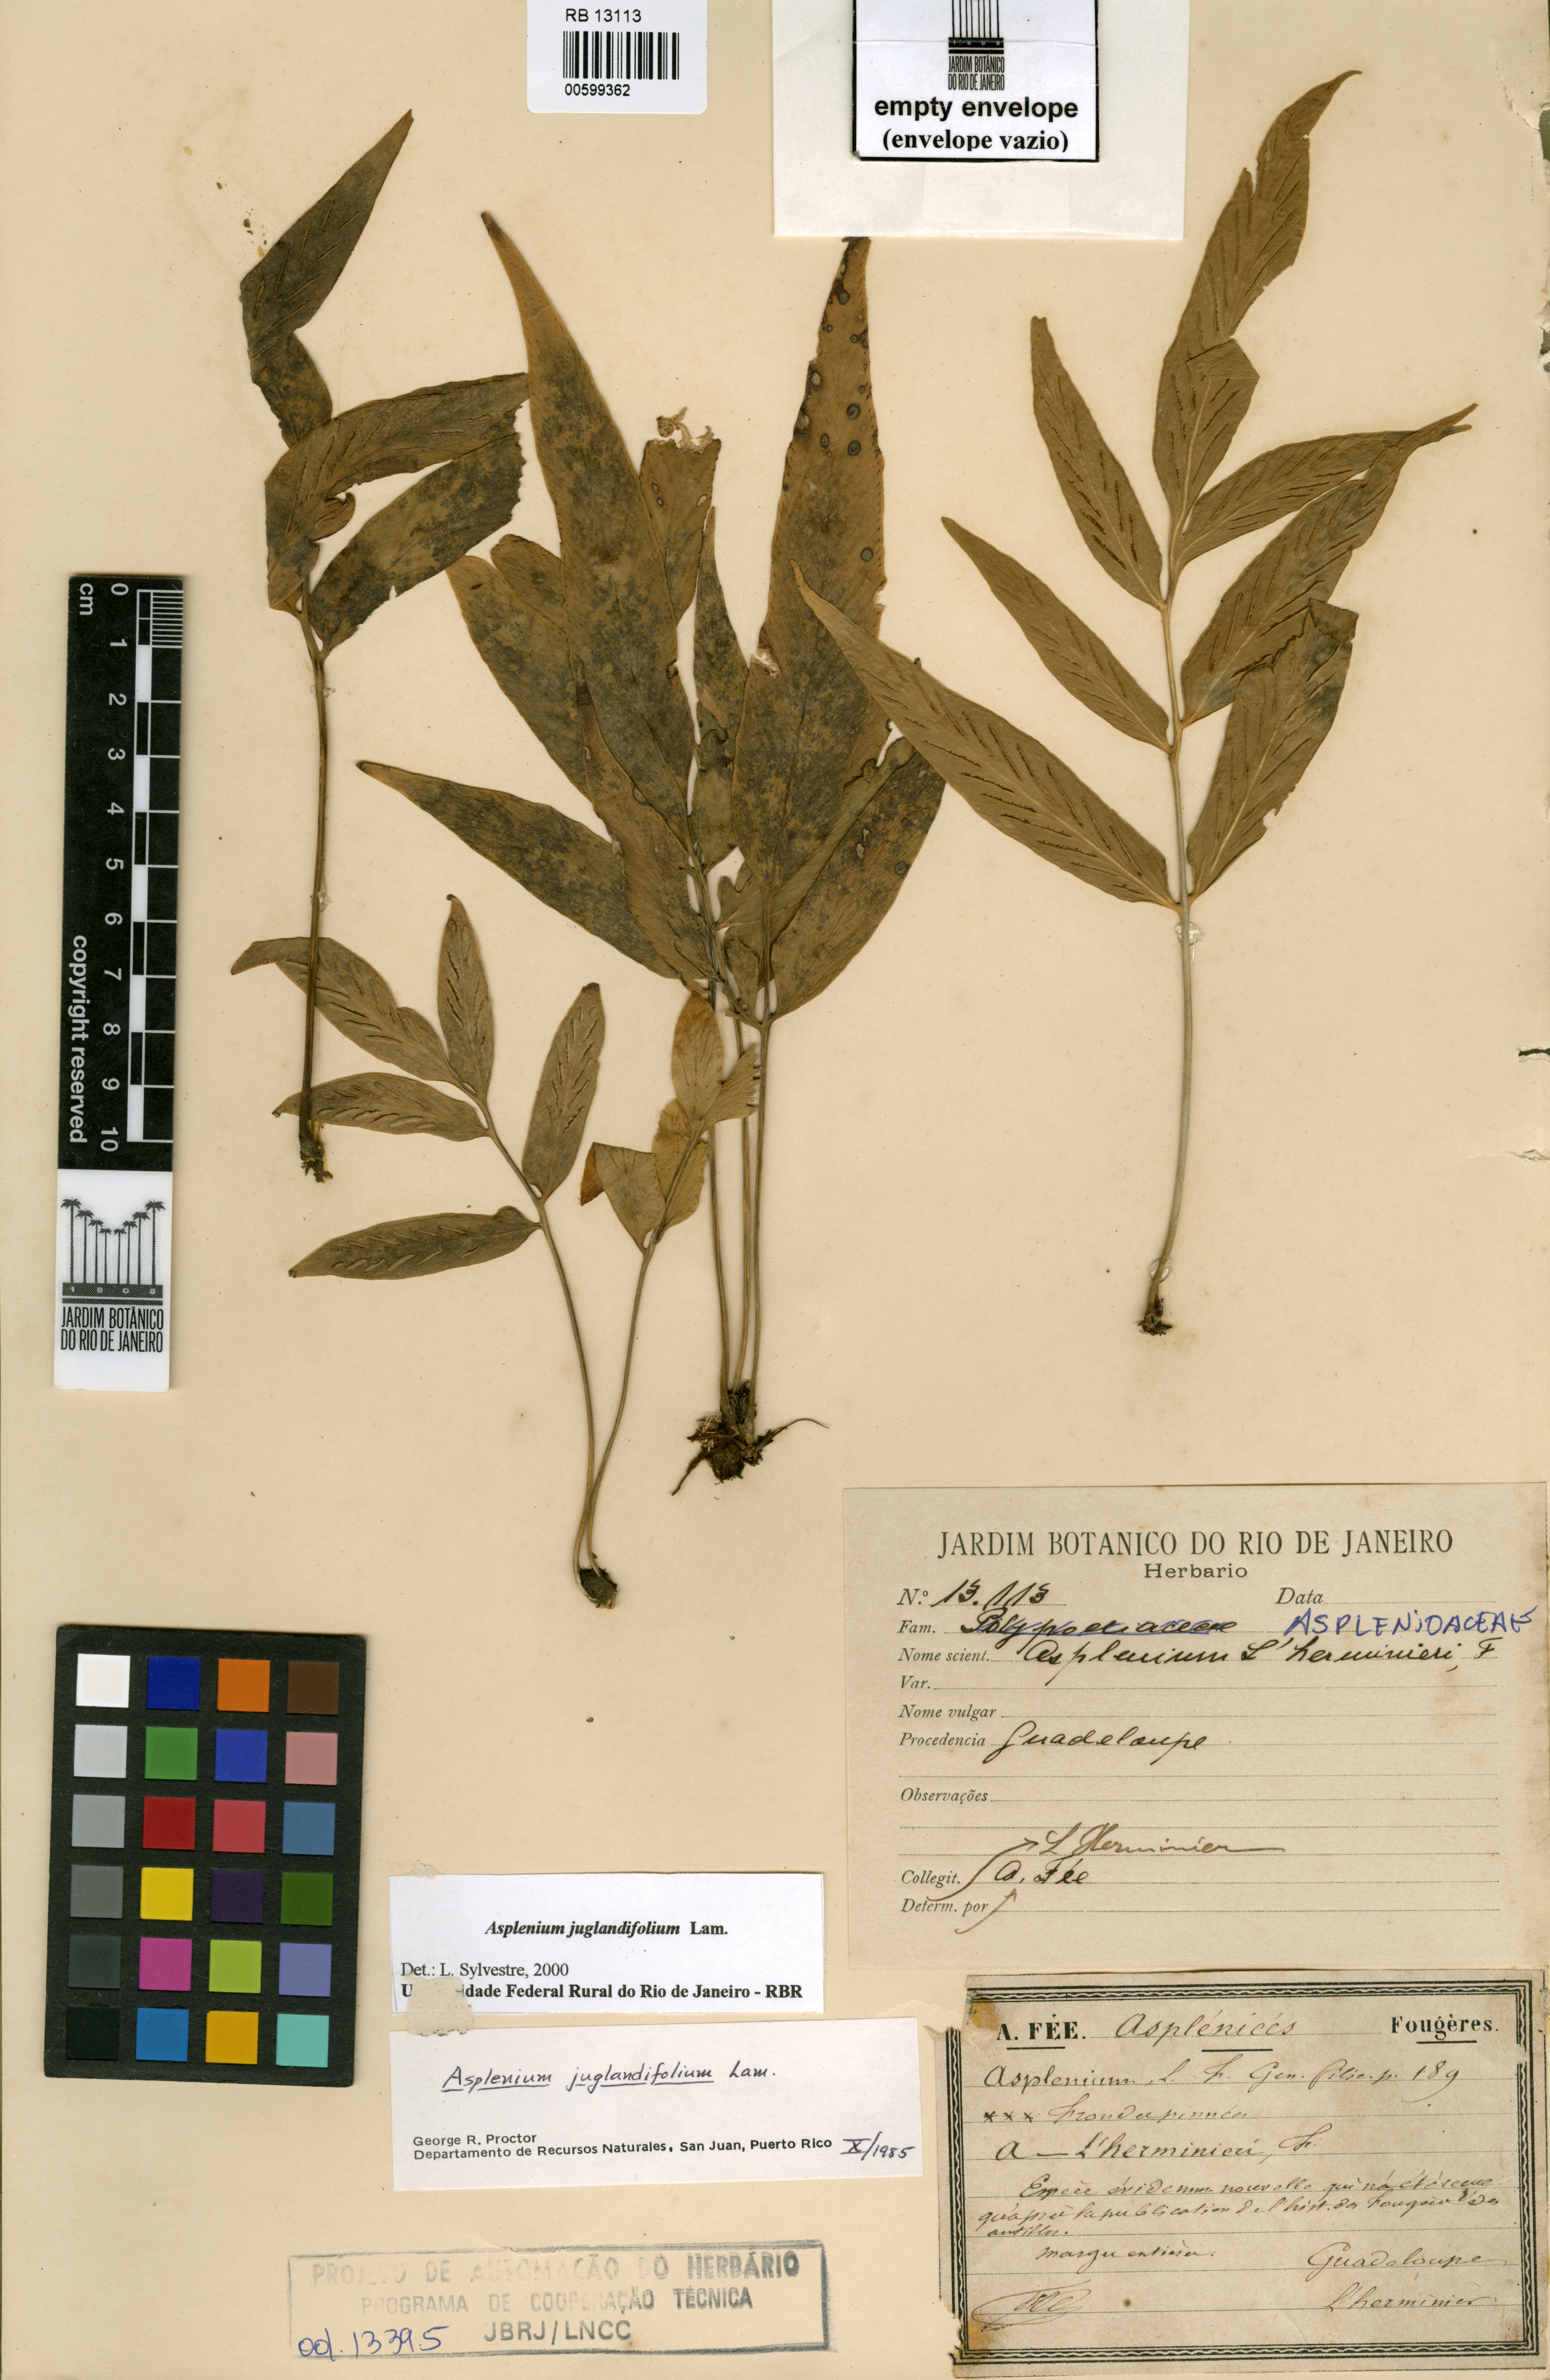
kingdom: Plantae
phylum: Tracheophyta
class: Polypodiopsida
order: Polypodiales
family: Aspleniaceae
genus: Asplenium
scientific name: Asplenium juglandifolium
